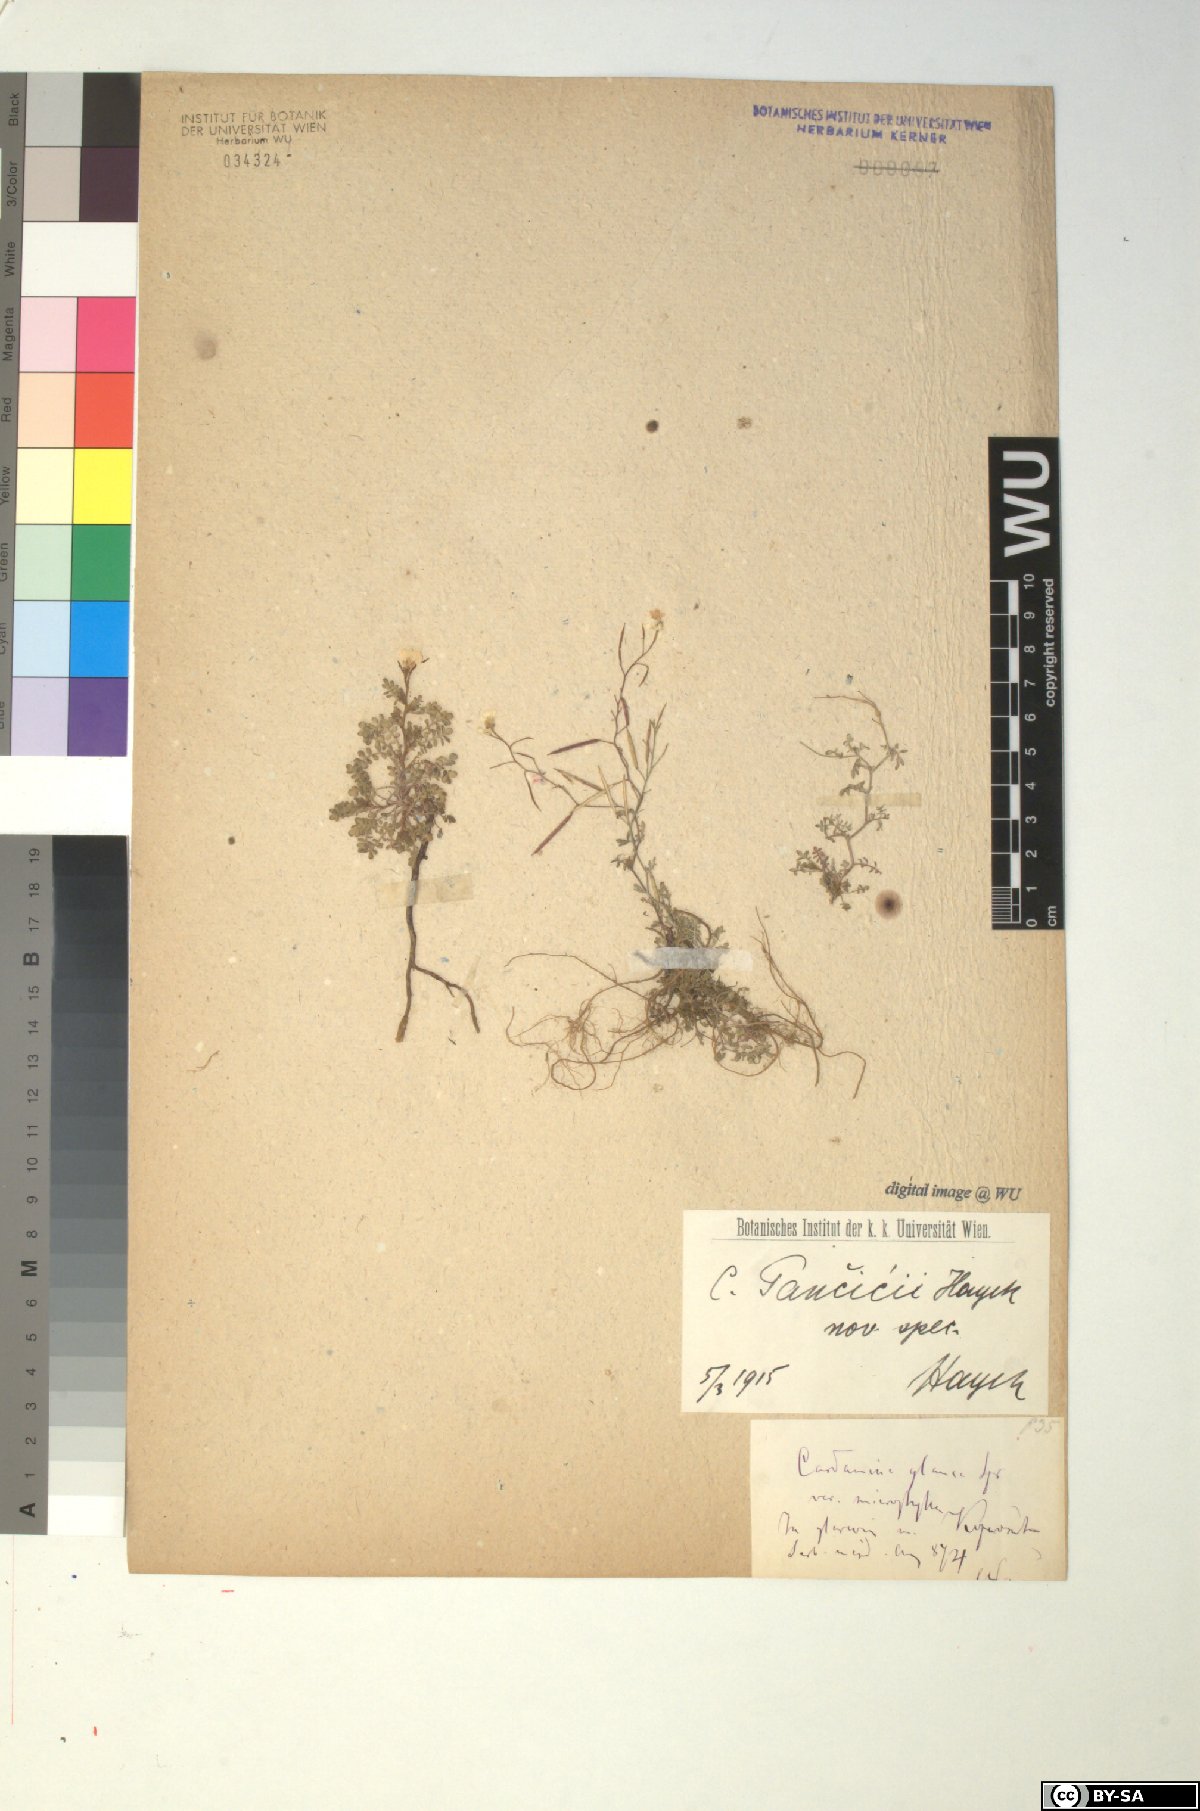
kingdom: Plantae
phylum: Tracheophyta
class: Magnoliopsida
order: Brassicales
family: Brassicaceae
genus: Cardamine
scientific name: Cardamine glauca
